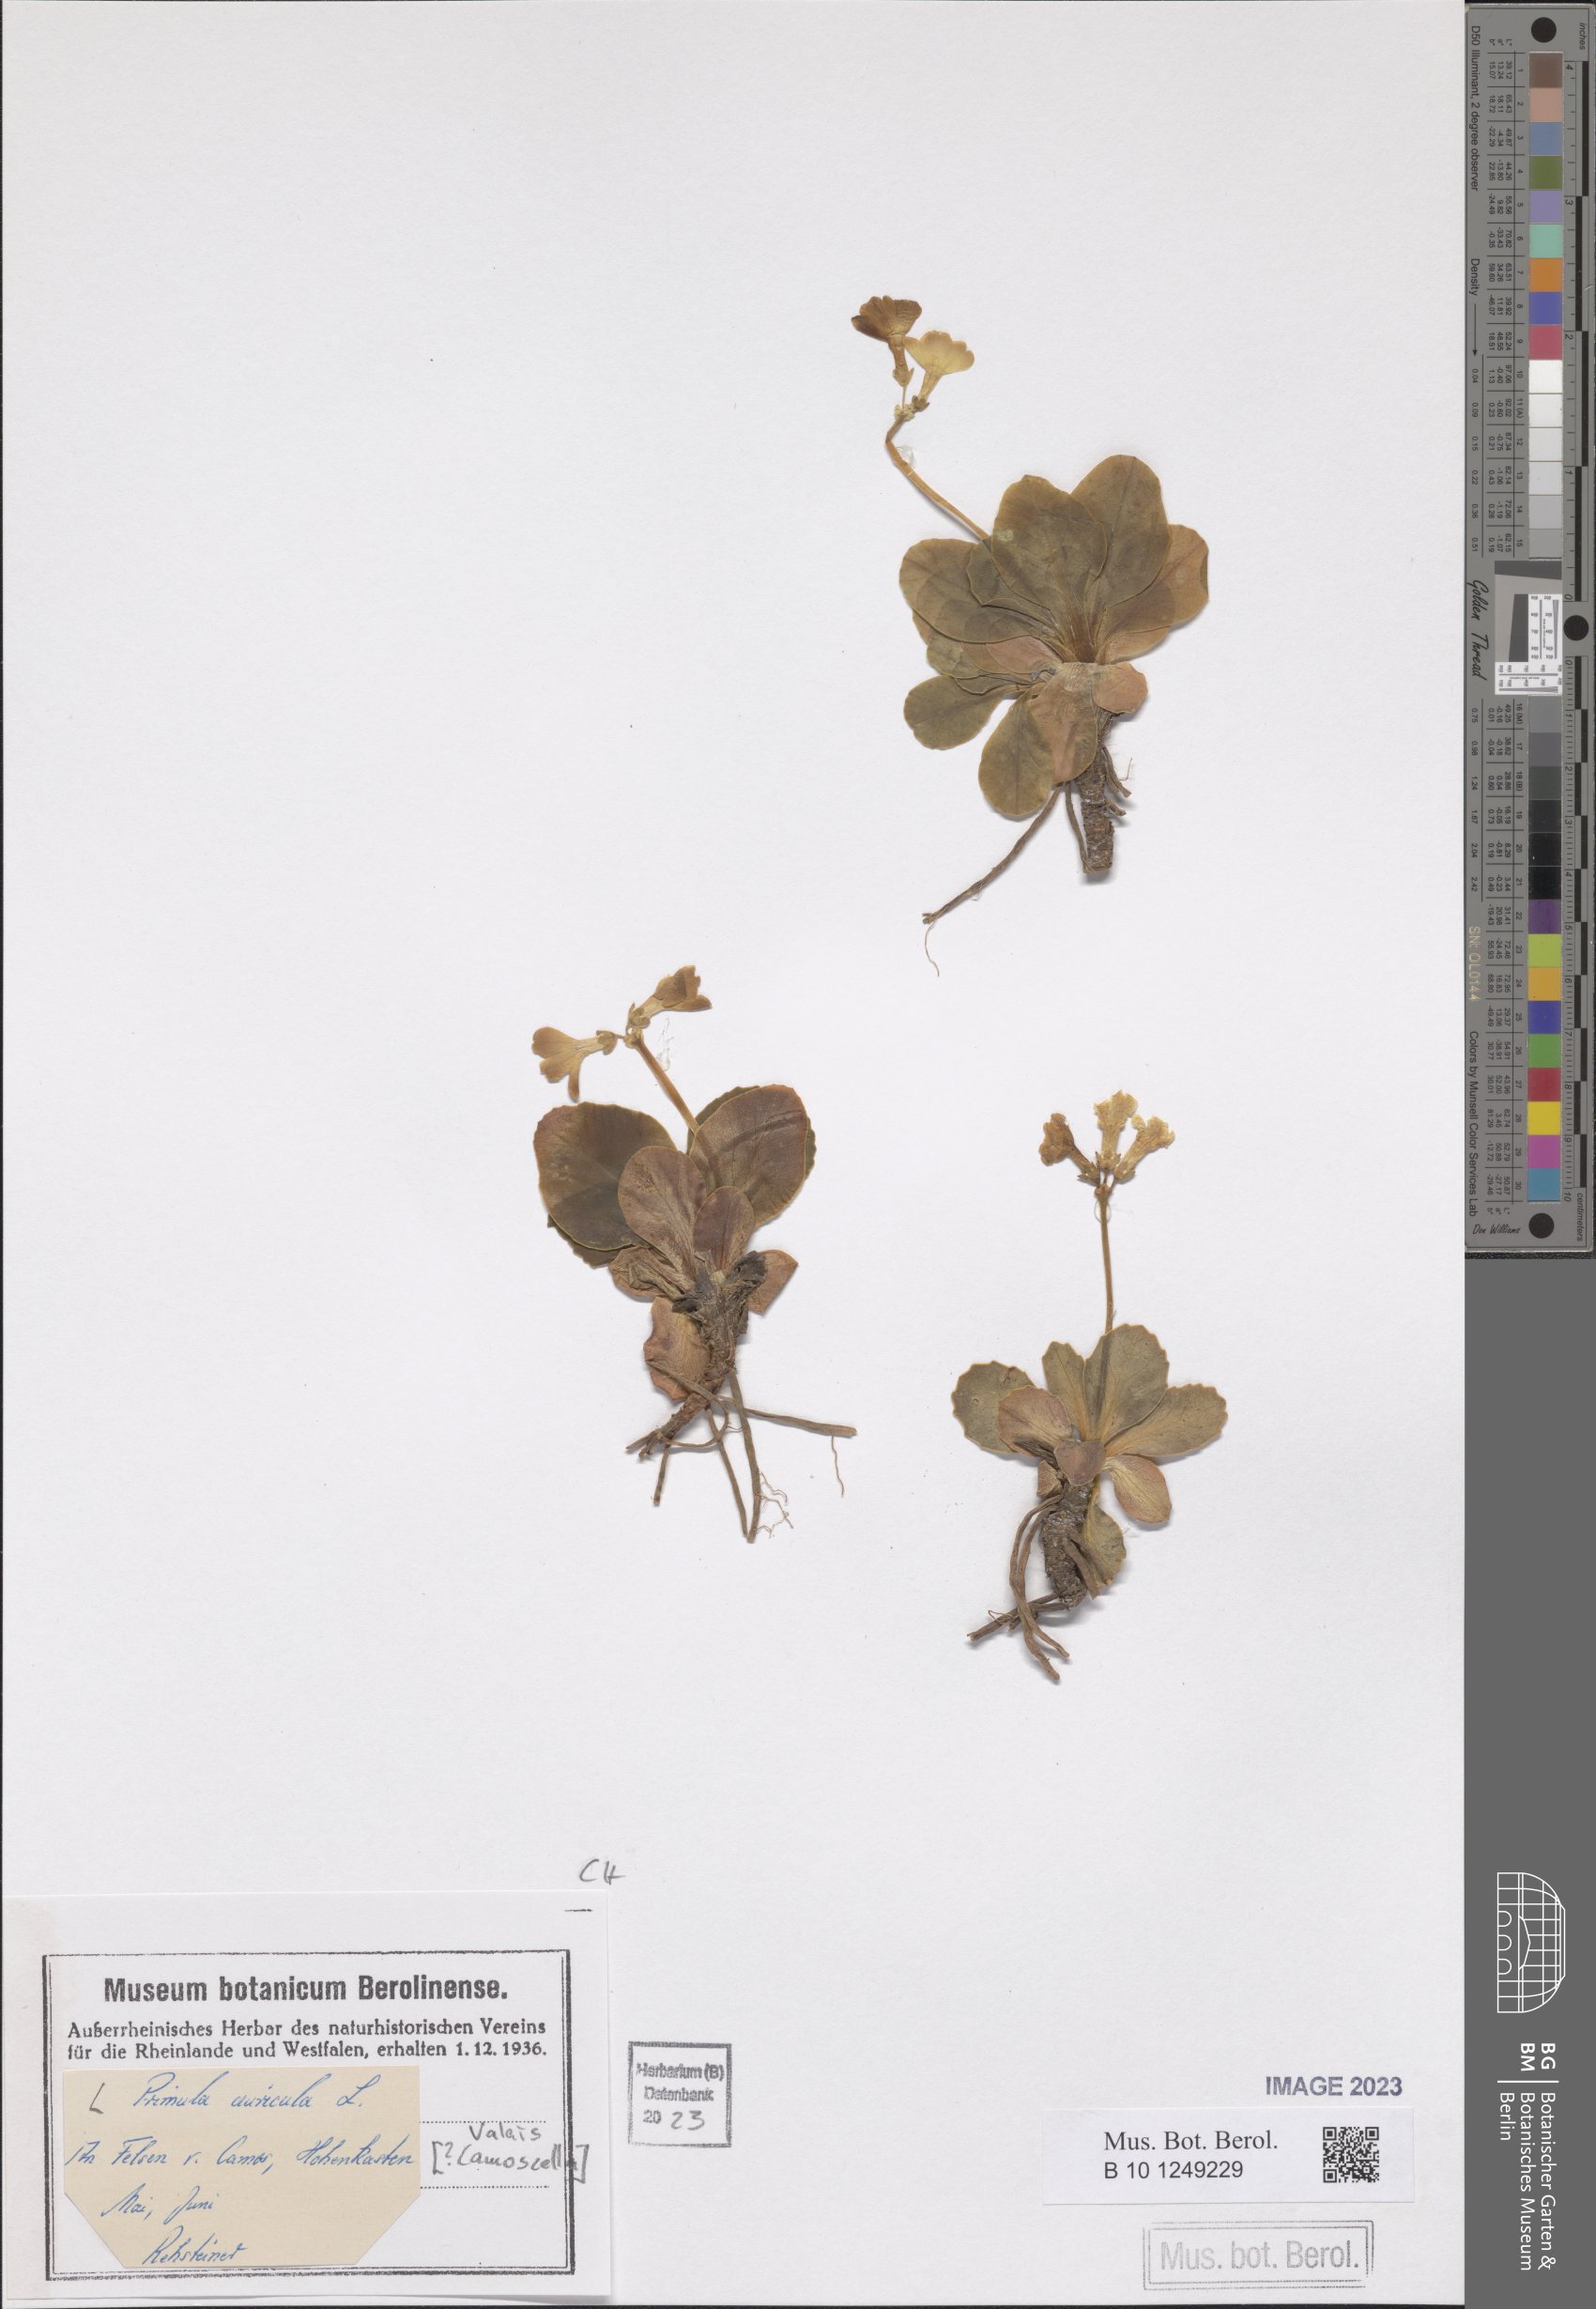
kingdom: Plantae
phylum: Tracheophyta
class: Magnoliopsida
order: Ericales
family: Primulaceae
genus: Primula
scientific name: Primula auricula
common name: Auricula
